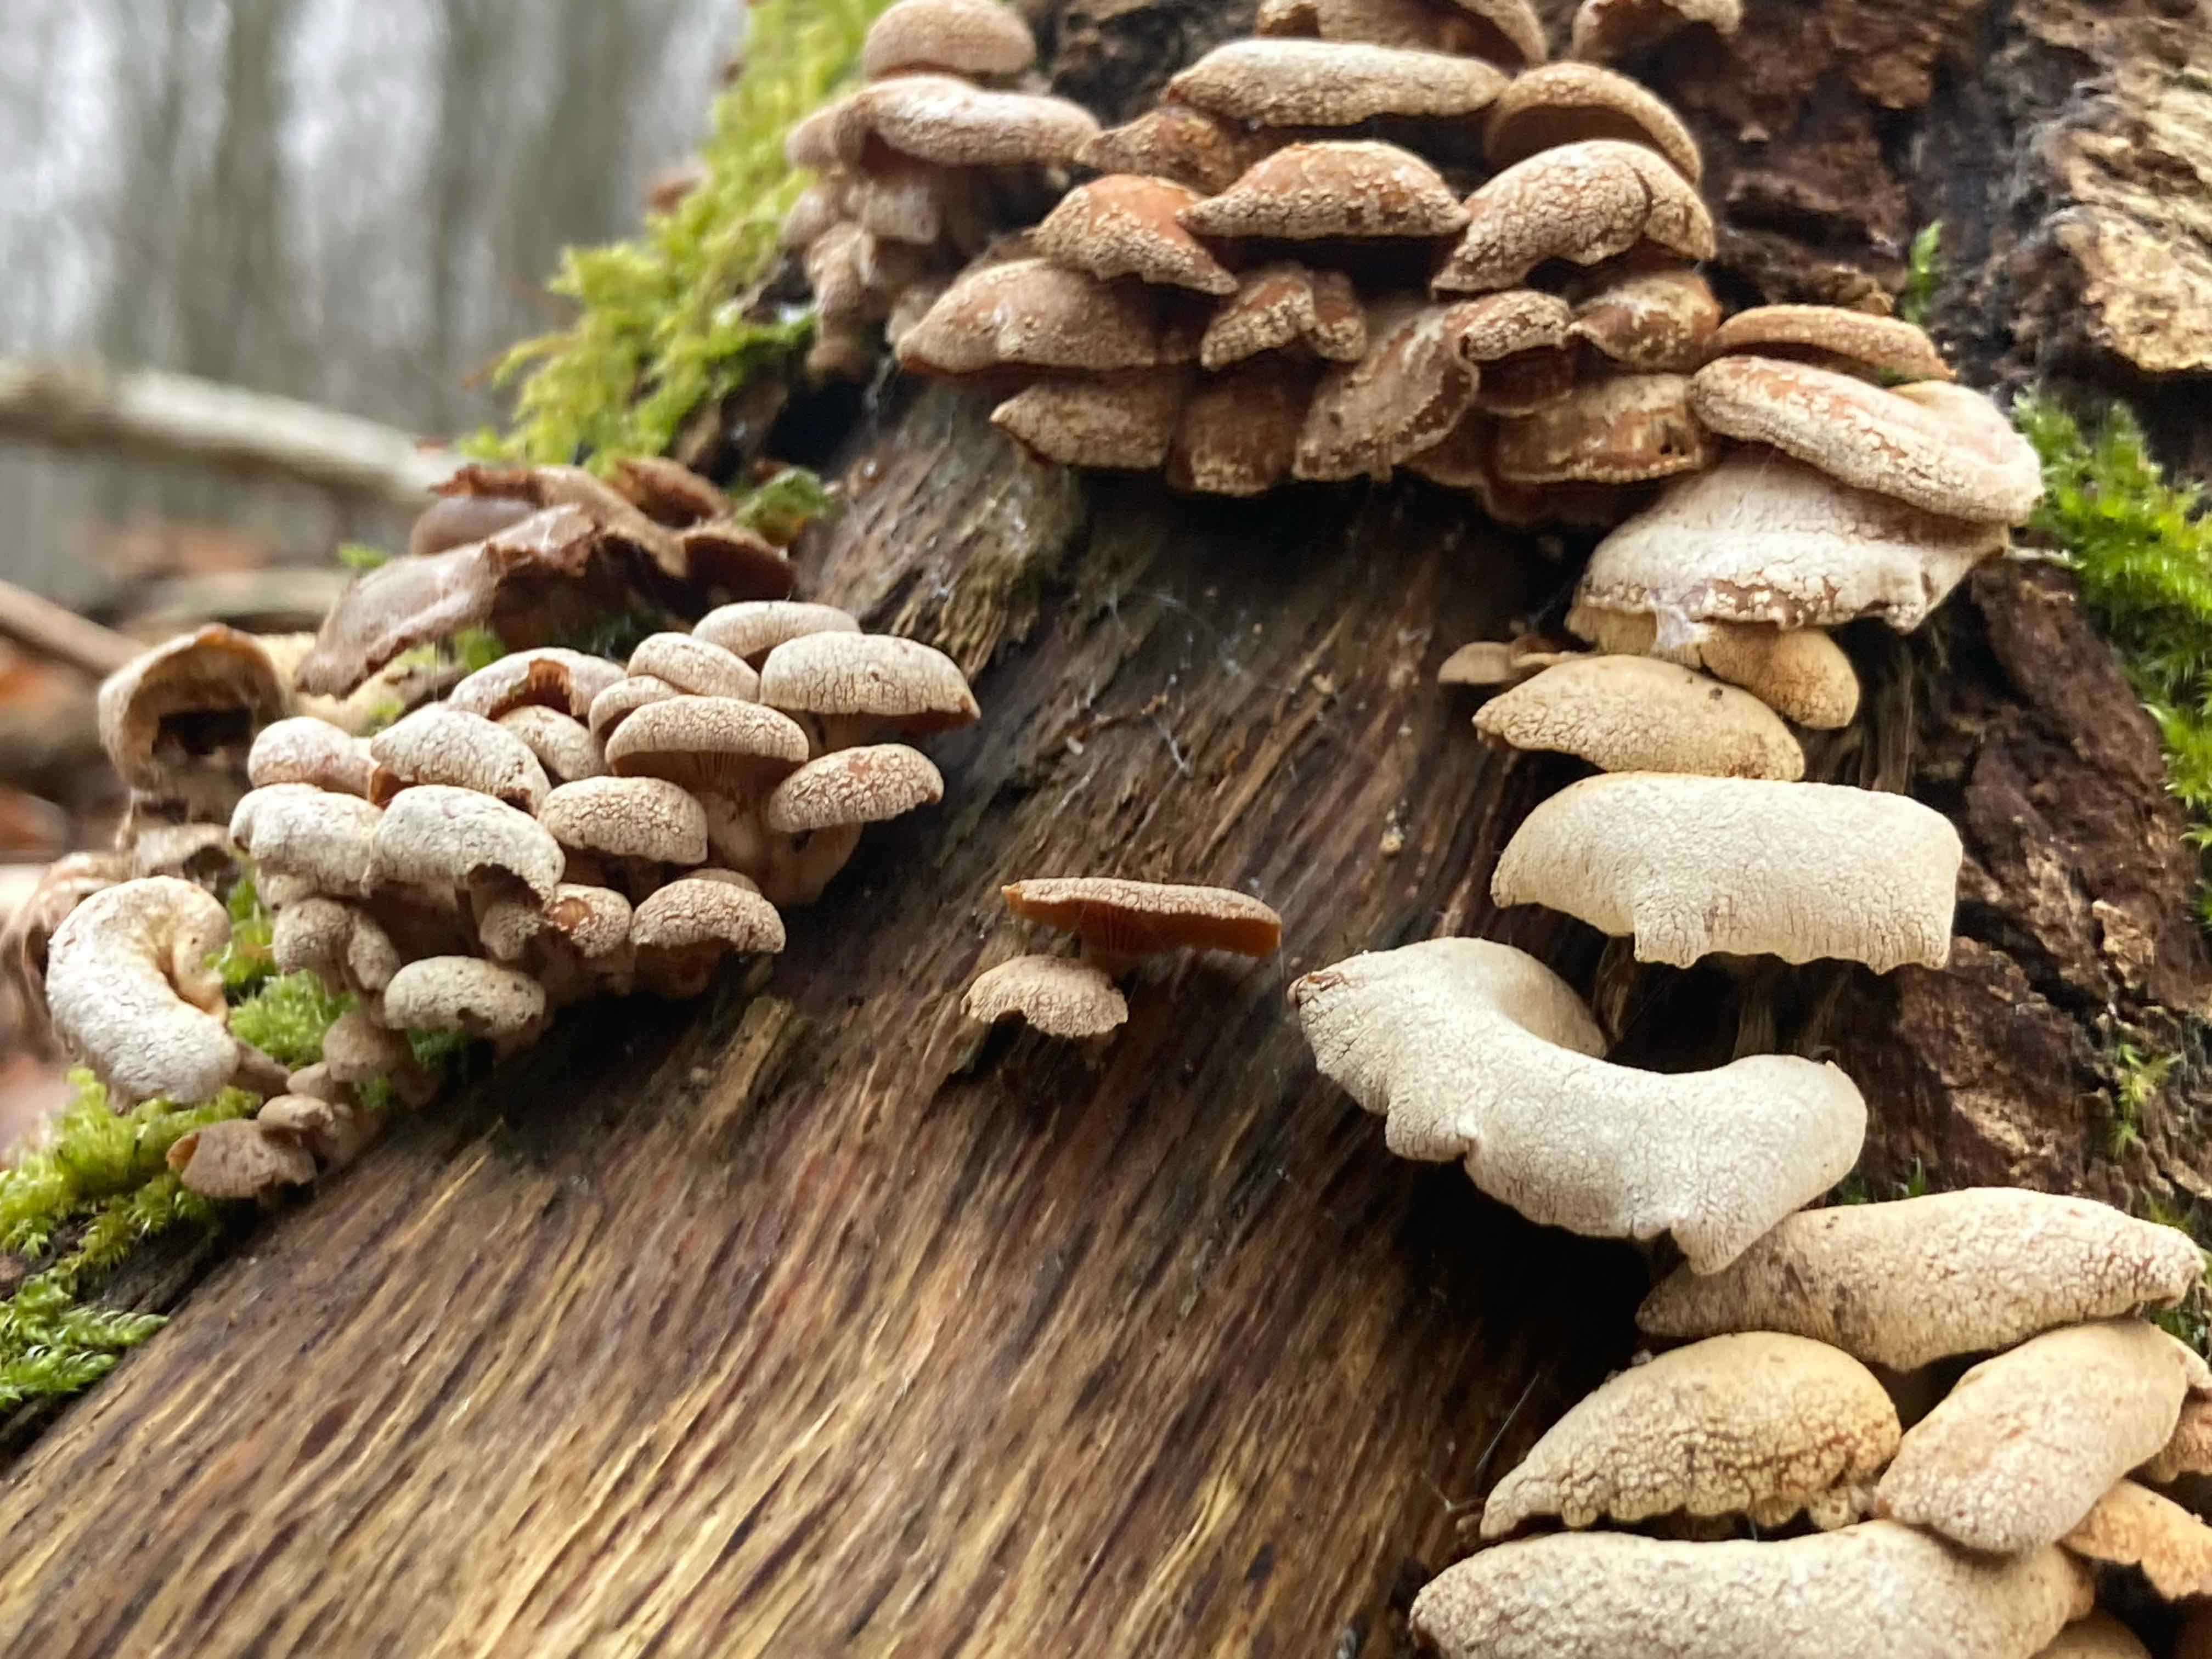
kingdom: Fungi
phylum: Basidiomycota
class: Agaricomycetes
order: Agaricales
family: Mycenaceae
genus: Panellus
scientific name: Panellus stipticus
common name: kliddet epaulethat
